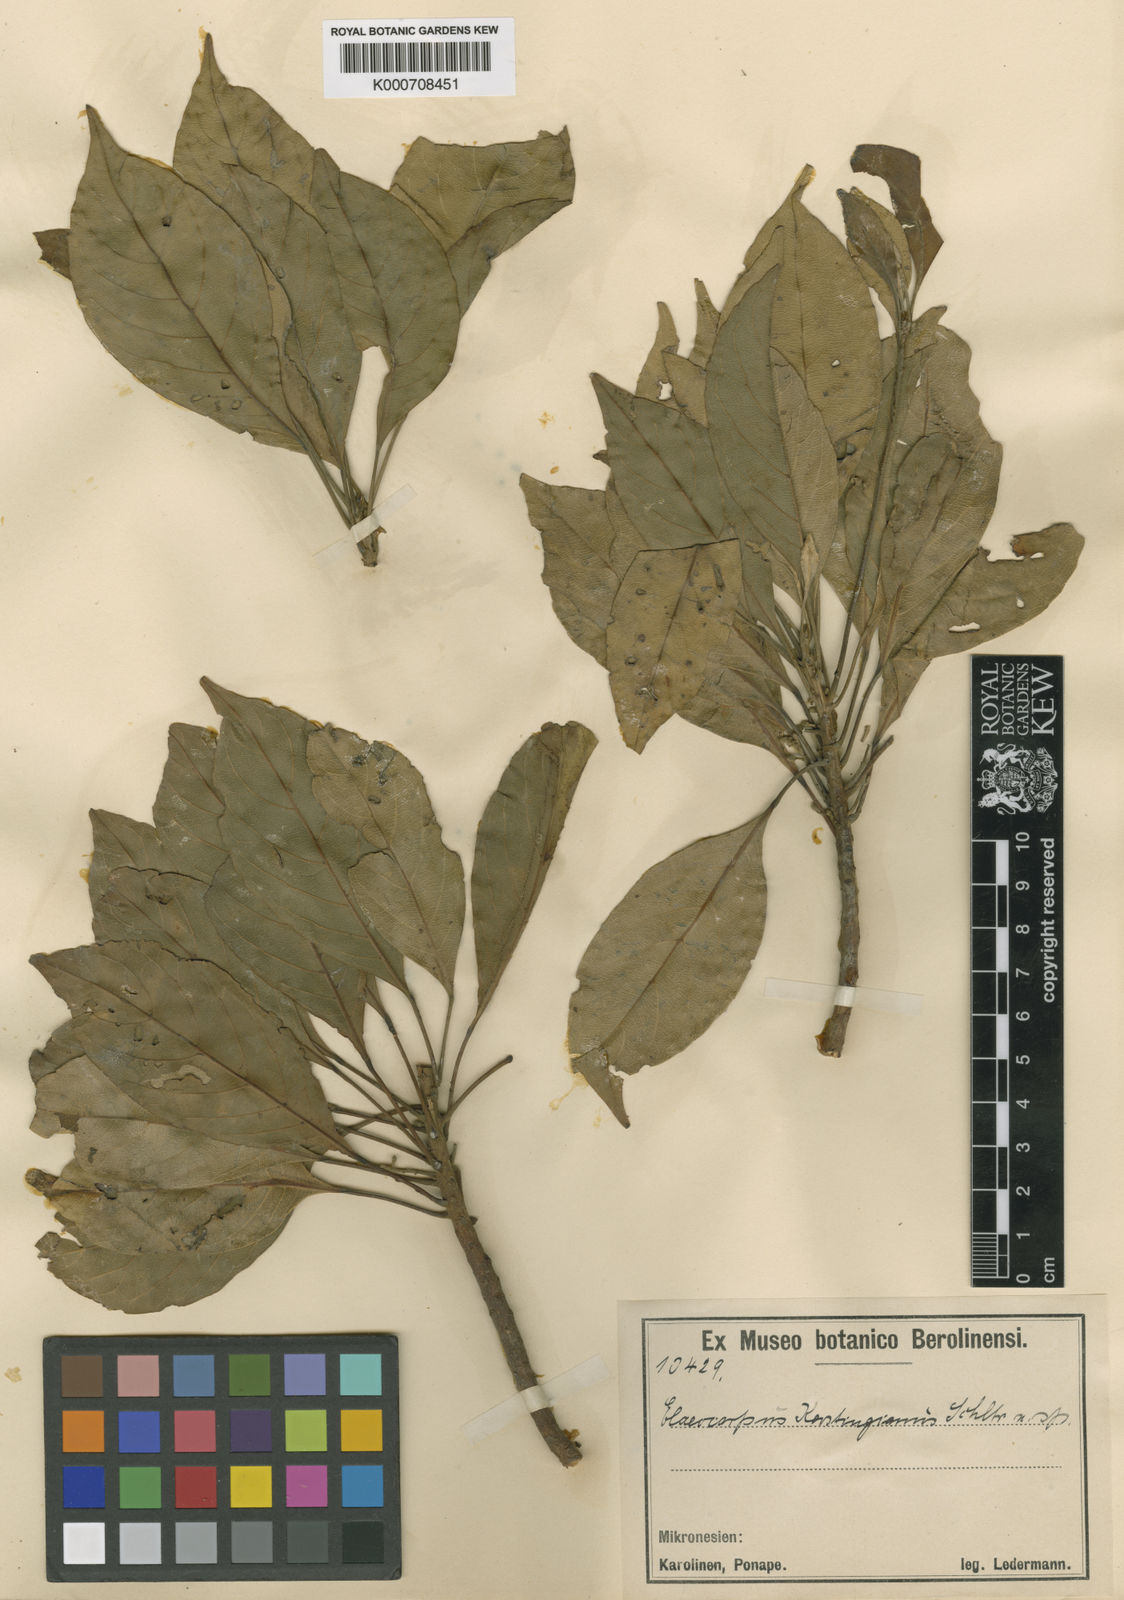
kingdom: Plantae
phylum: Tracheophyta
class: Magnoliopsida
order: Oxalidales
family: Elaeocarpaceae
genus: Elaeocarpus
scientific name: Elaeocarpus kerstingianus
